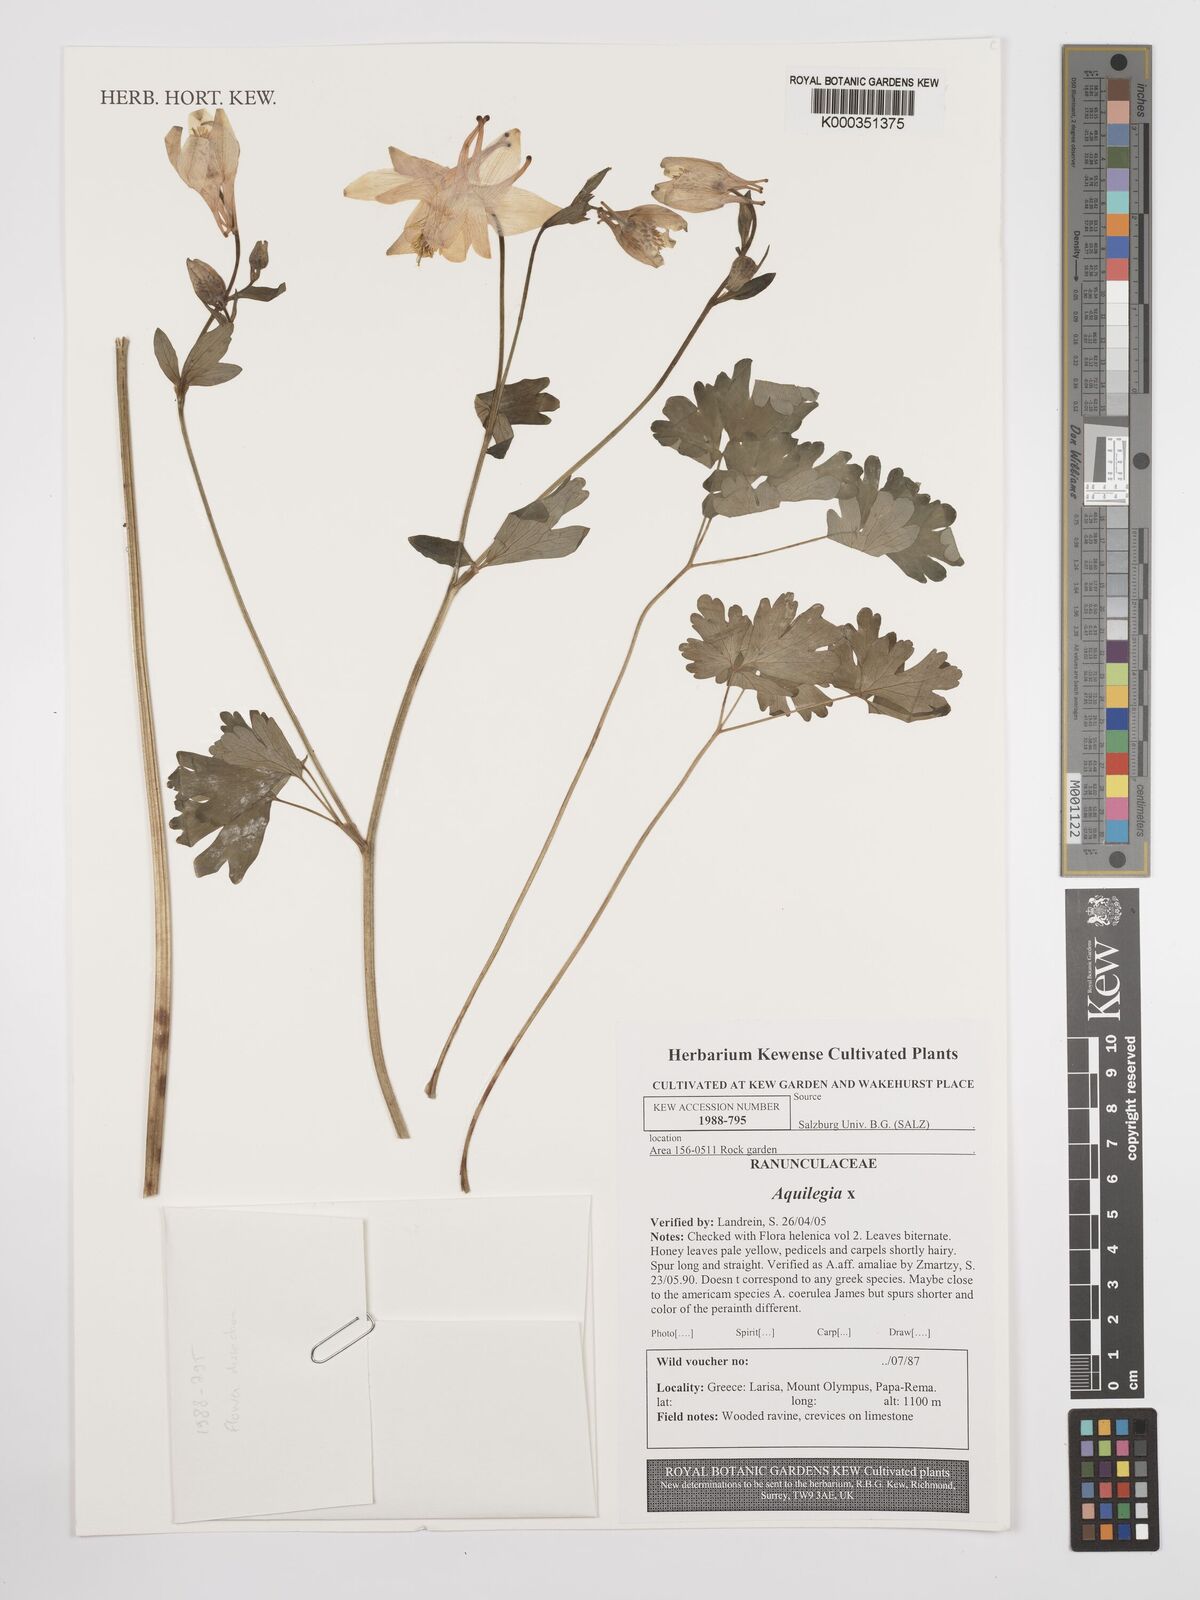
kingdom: Plantae
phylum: Tracheophyta
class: Magnoliopsida
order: Ranunculales
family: Ranunculaceae
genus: Aquilegia
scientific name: Aquilegia
